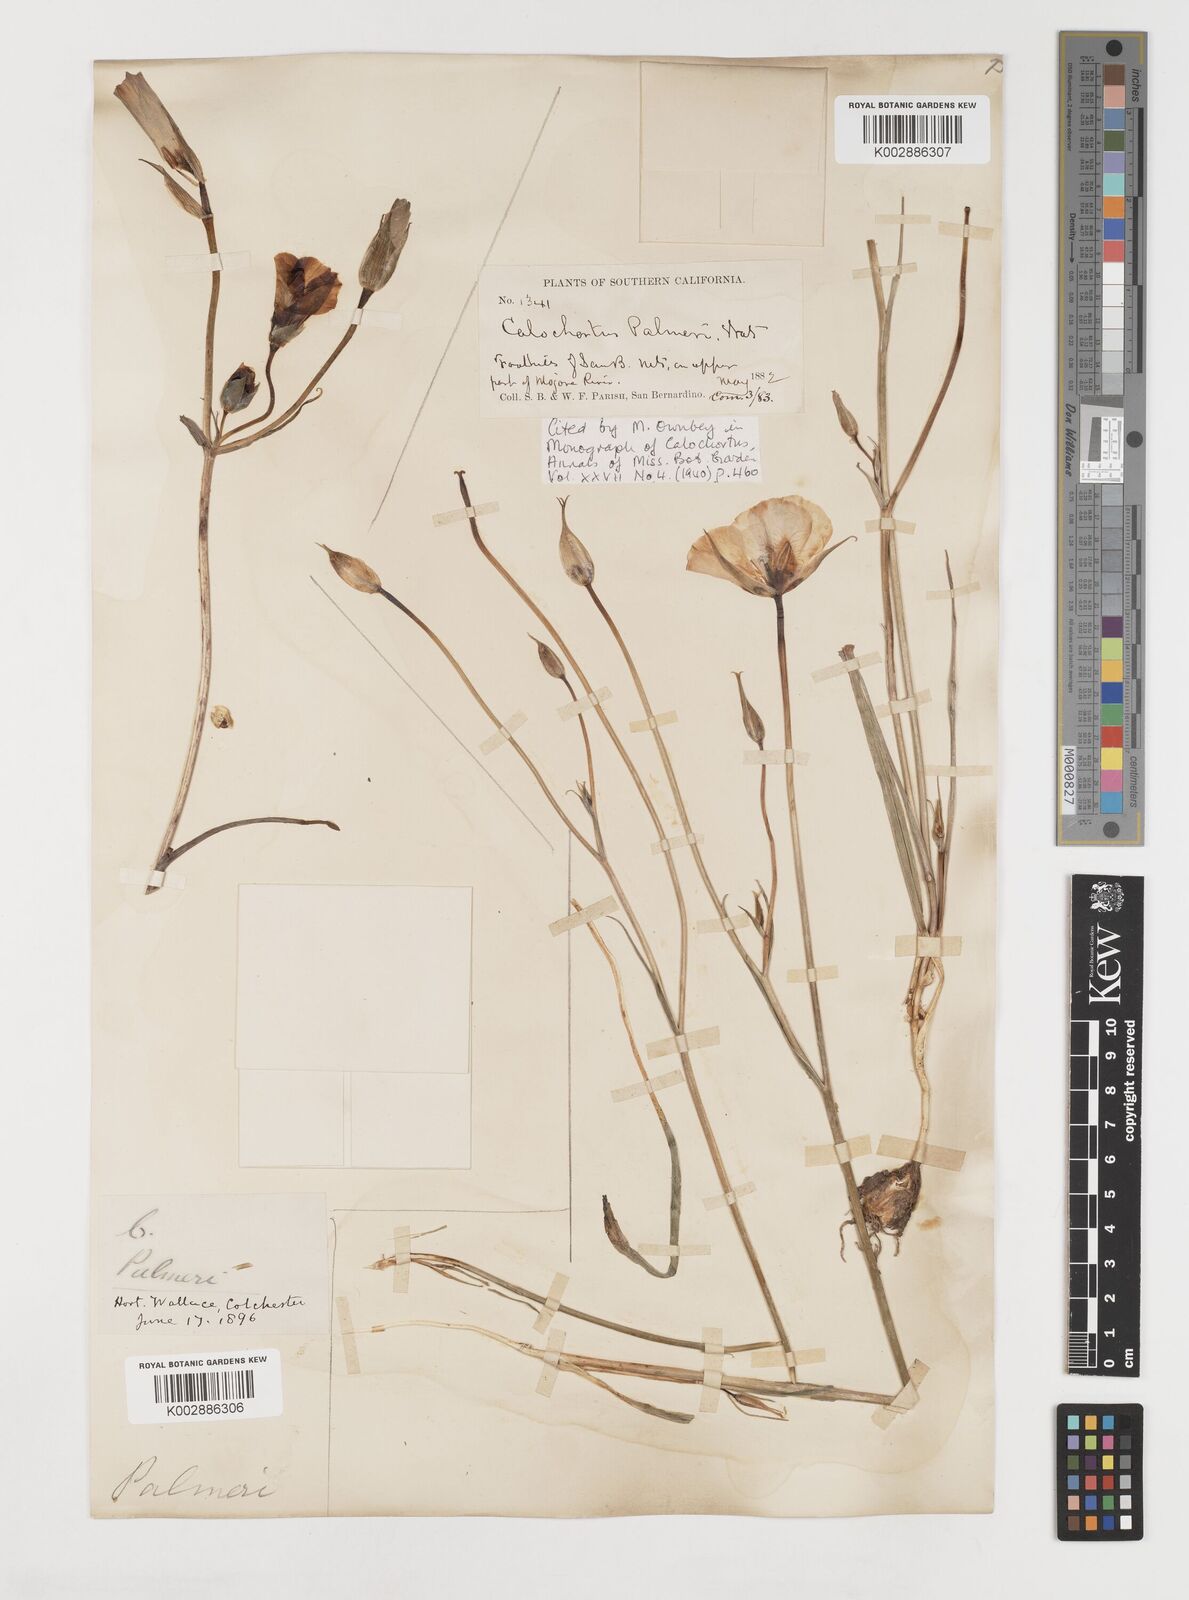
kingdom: Plantae
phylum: Tracheophyta
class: Liliopsida
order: Liliales
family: Liliaceae
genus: Calochortus
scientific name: Calochortus palmeri
